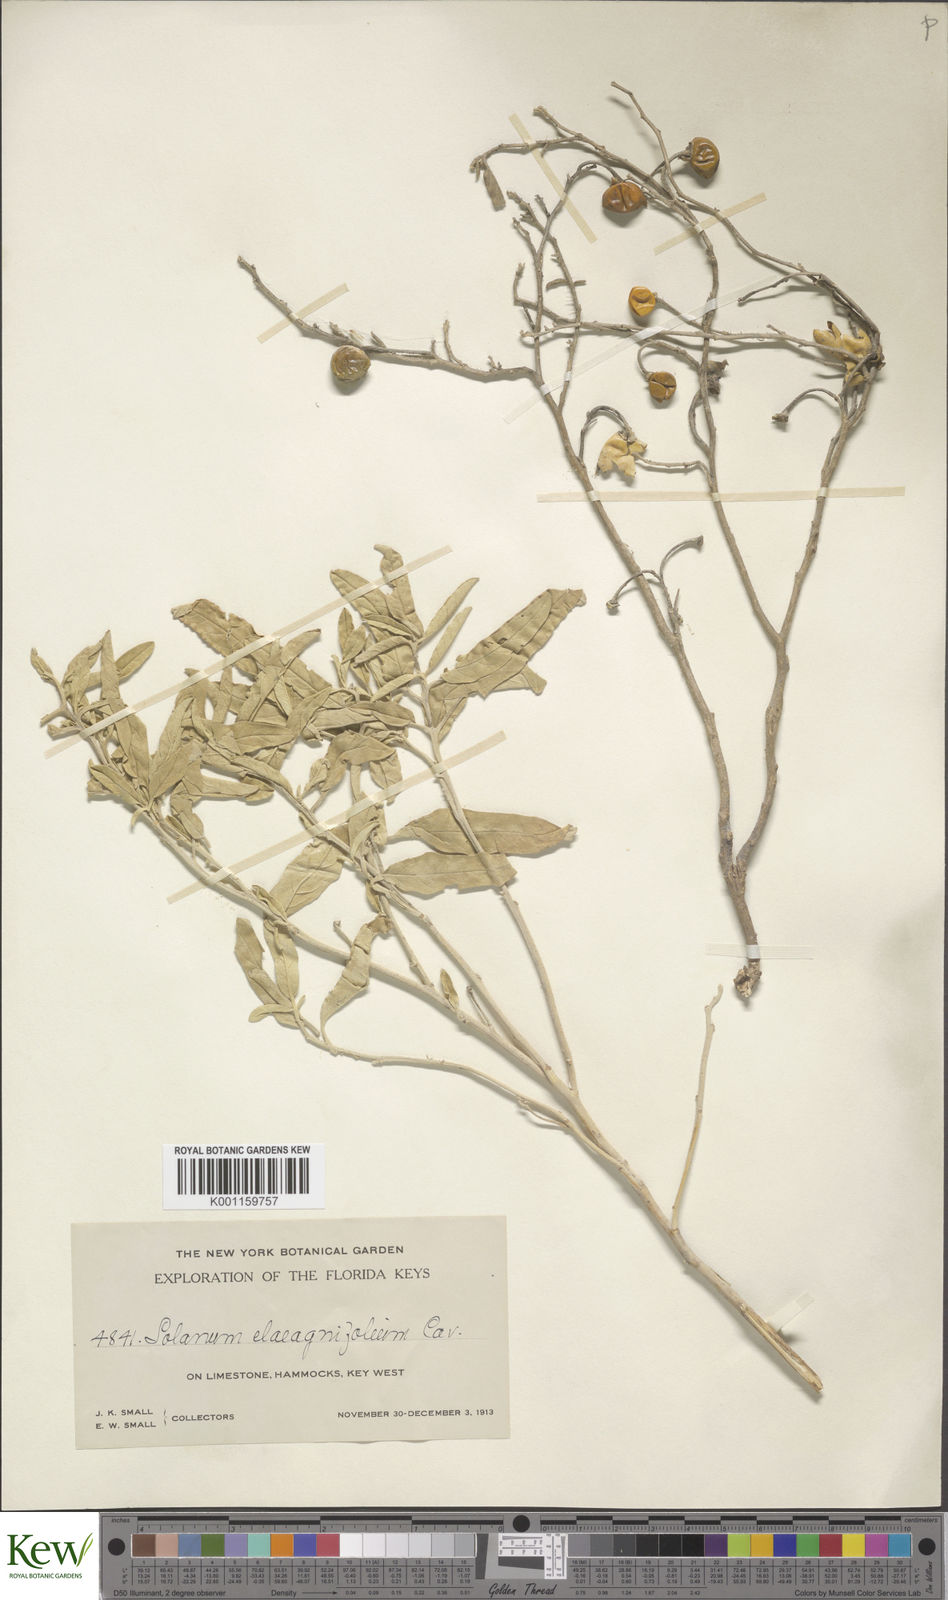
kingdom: Plantae
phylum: Tracheophyta
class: Magnoliopsida
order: Solanales
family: Solanaceae
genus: Solanum
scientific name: Solanum
